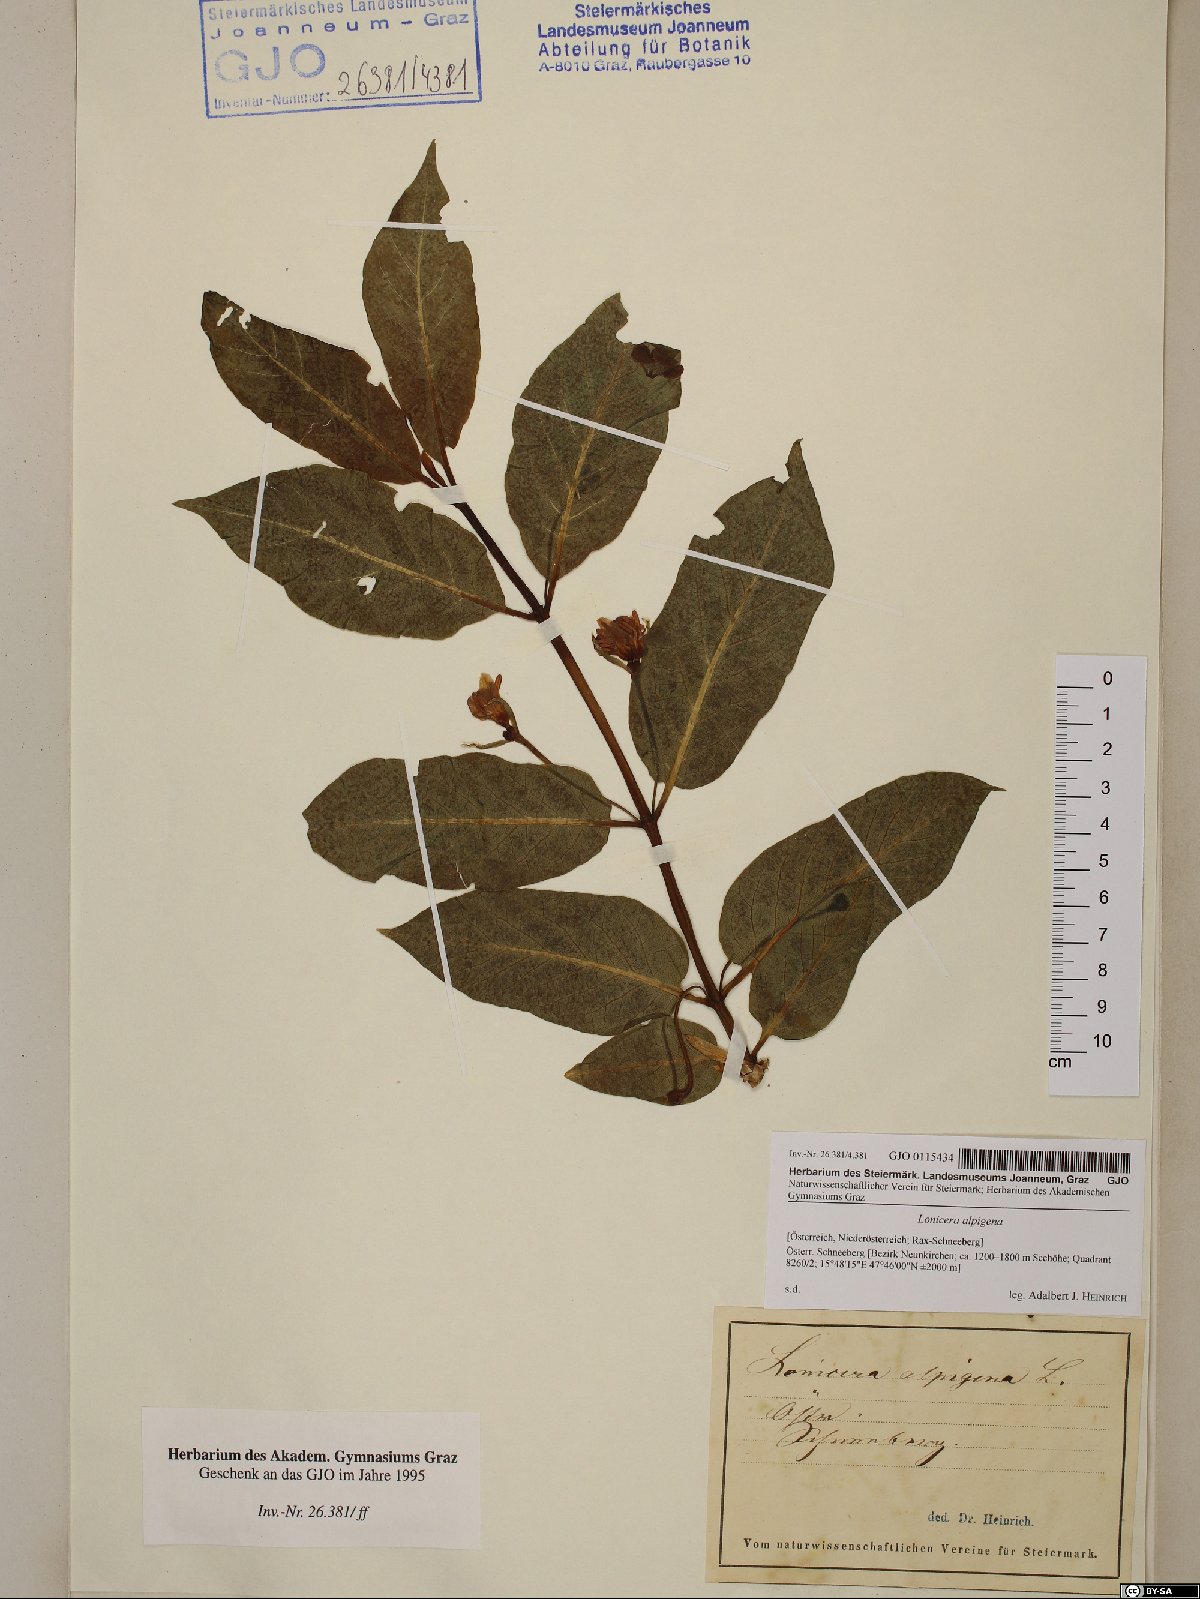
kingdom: Plantae
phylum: Tracheophyta
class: Magnoliopsida
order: Dipsacales
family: Caprifoliaceae
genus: Lonicera
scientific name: Lonicera alpigena
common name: Alpine honeysuckle
